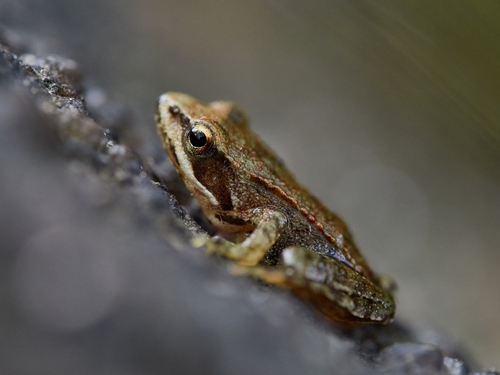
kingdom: Animalia
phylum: Chordata
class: Amphibia
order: Anura
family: Ranidae
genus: Rana
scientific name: Rana iberica
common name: Iberian frog
